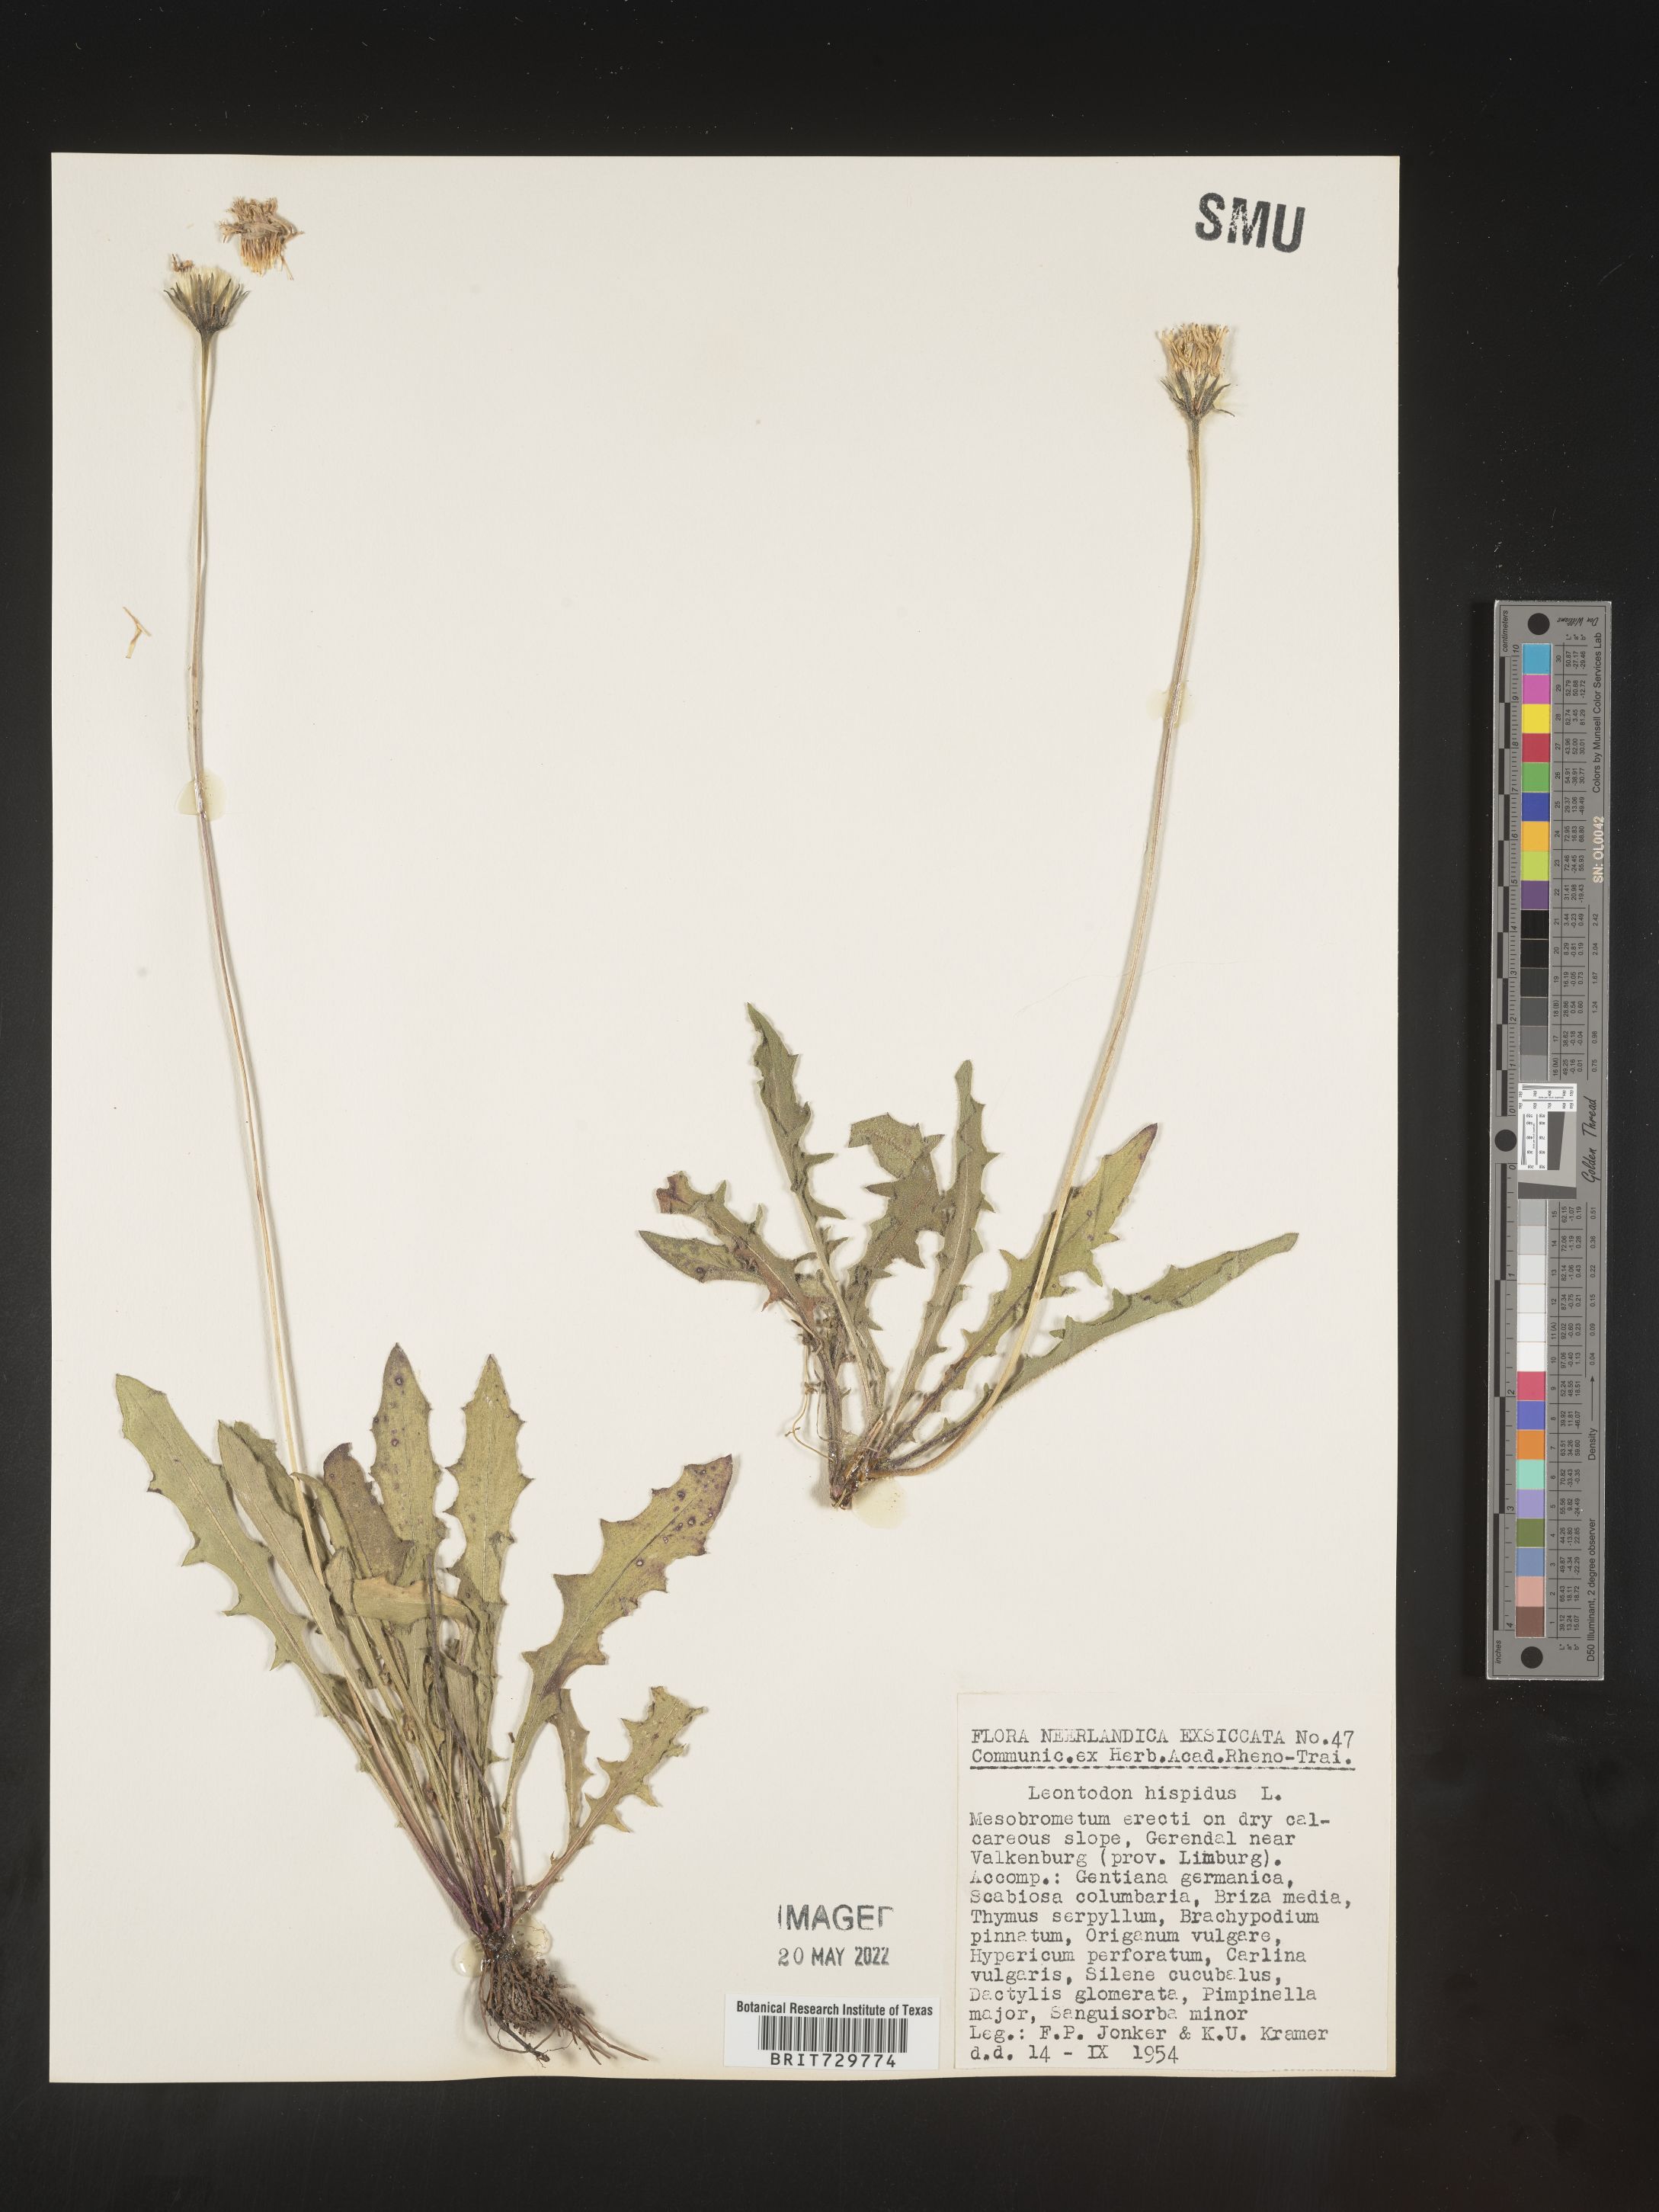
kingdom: Plantae
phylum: Tracheophyta
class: Magnoliopsida
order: Asterales
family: Asteraceae
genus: Leontodon
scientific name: Leontodon
